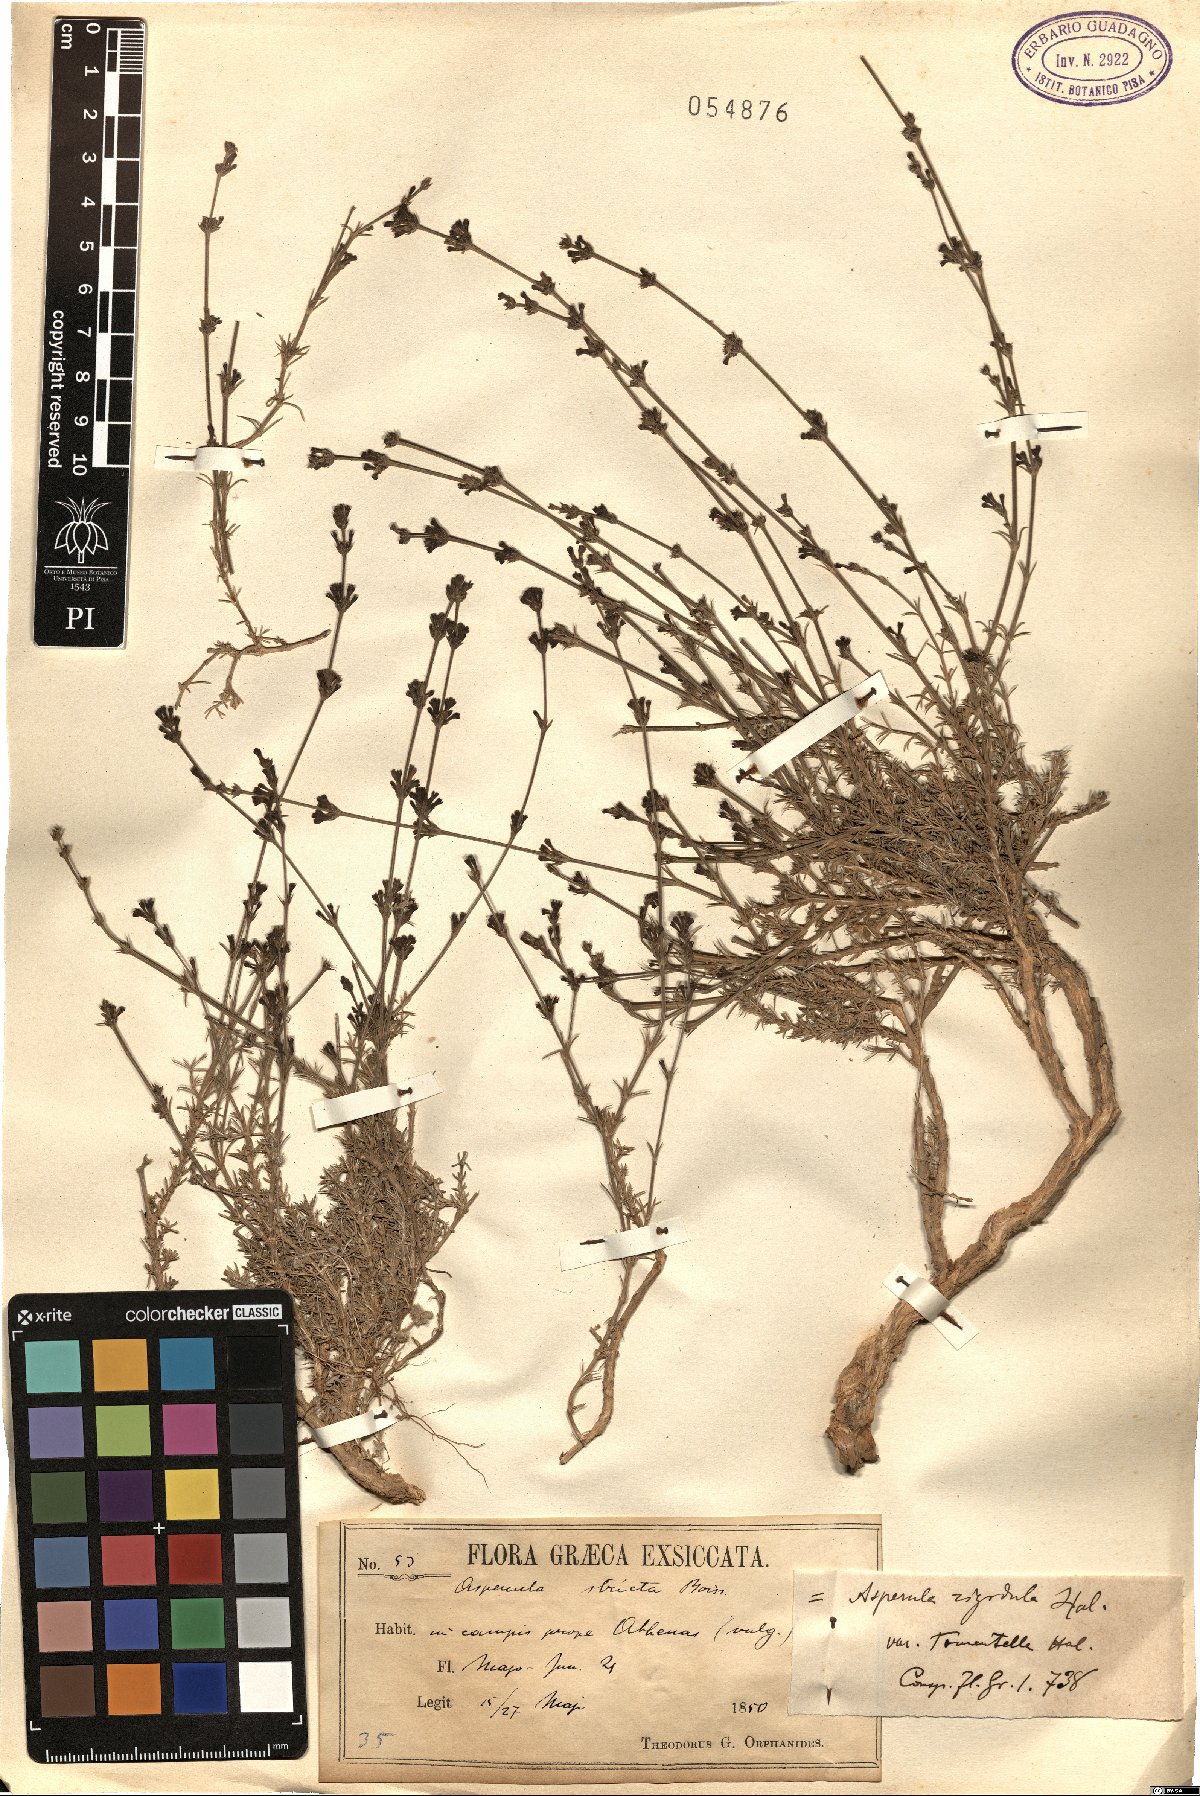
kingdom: Plantae
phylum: Tracheophyta
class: Magnoliopsida
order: Gentianales
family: Rubiaceae
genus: Cynanchica
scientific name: Cynanchica stricta
